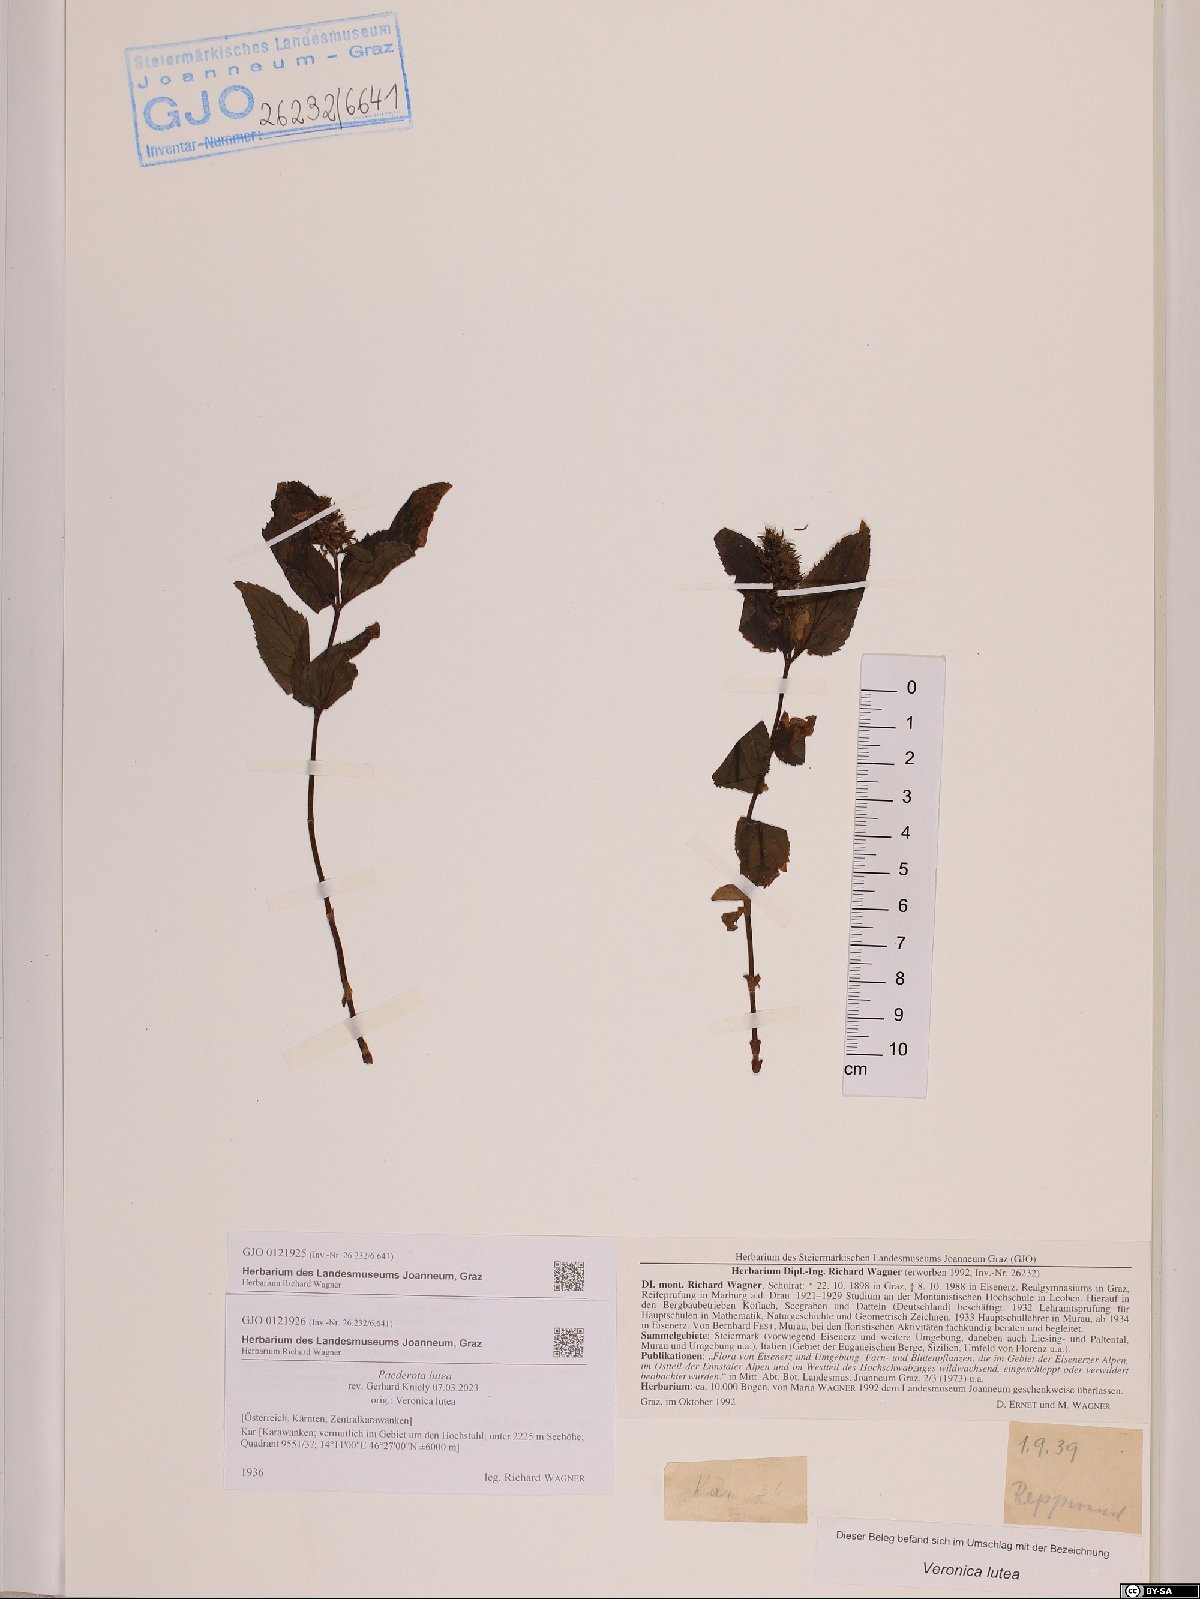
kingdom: Plantae
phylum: Tracheophyta
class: Magnoliopsida
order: Lamiales
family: Plantaginaceae
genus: Paederota
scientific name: Paederota lutea
